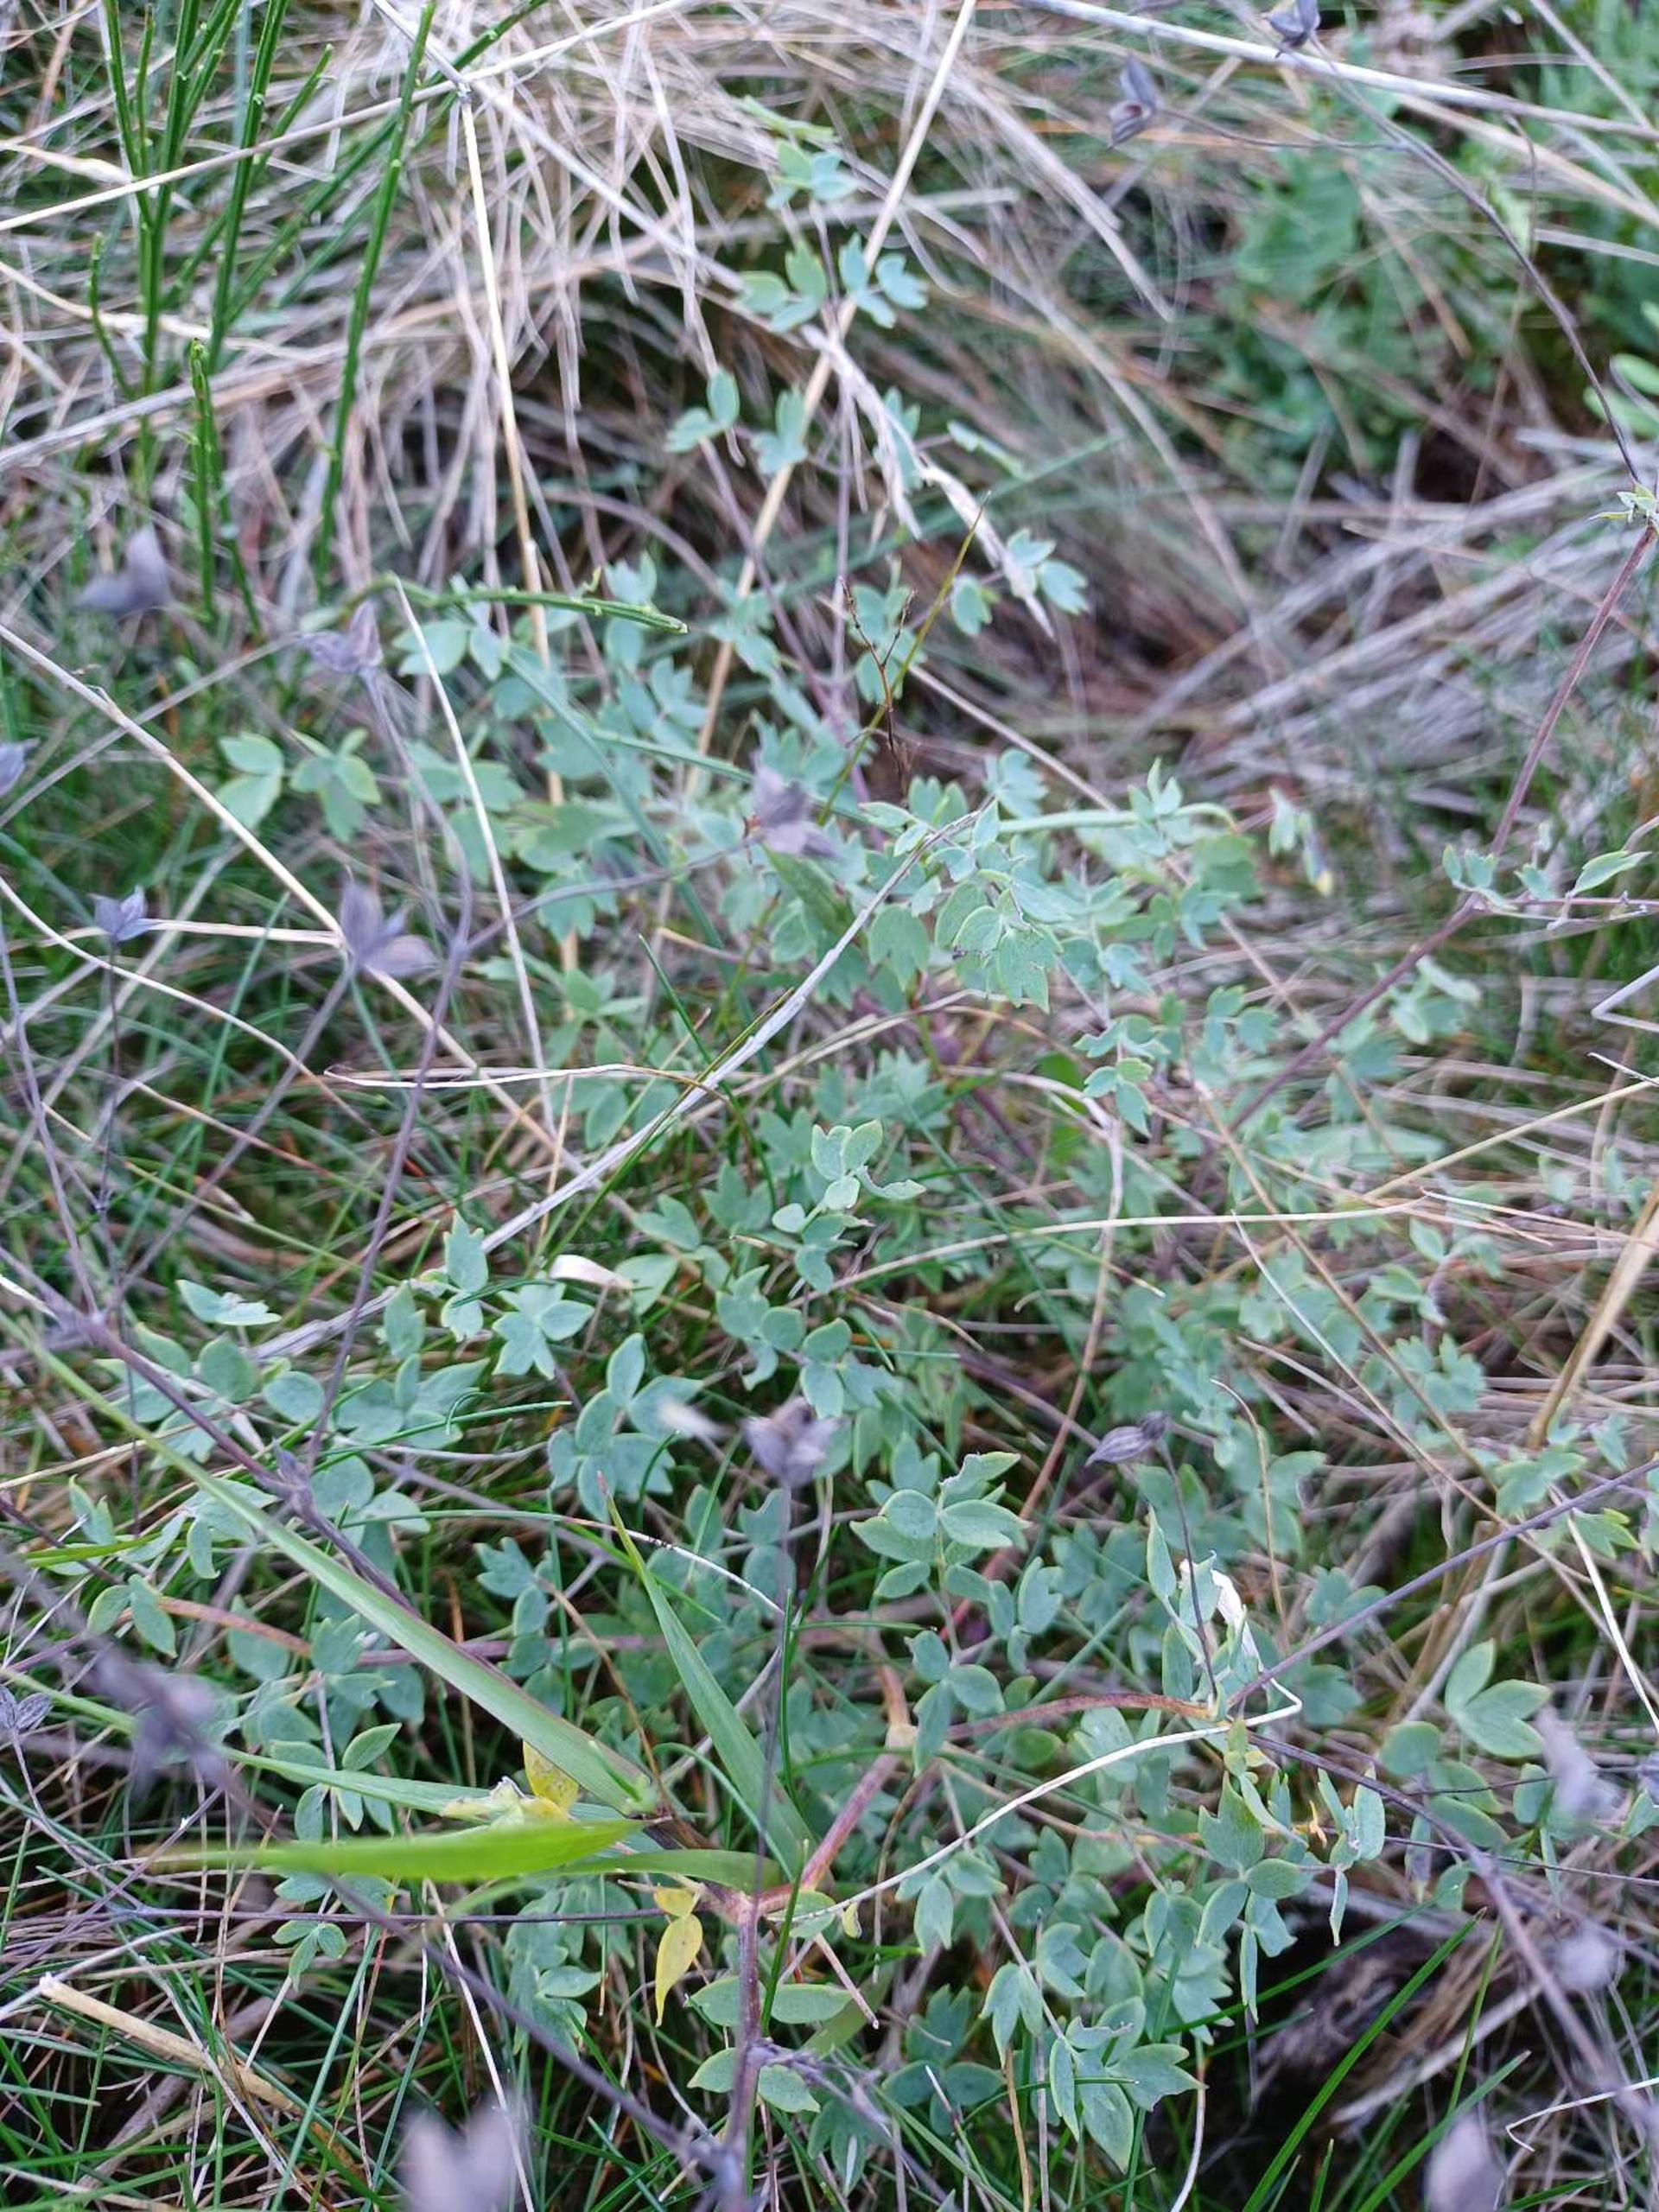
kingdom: Plantae
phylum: Tracheophyta
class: Magnoliopsida
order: Ranunculales
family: Ranunculaceae
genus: Thalictrum
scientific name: Thalictrum minus
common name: Sand-frøstjerne
